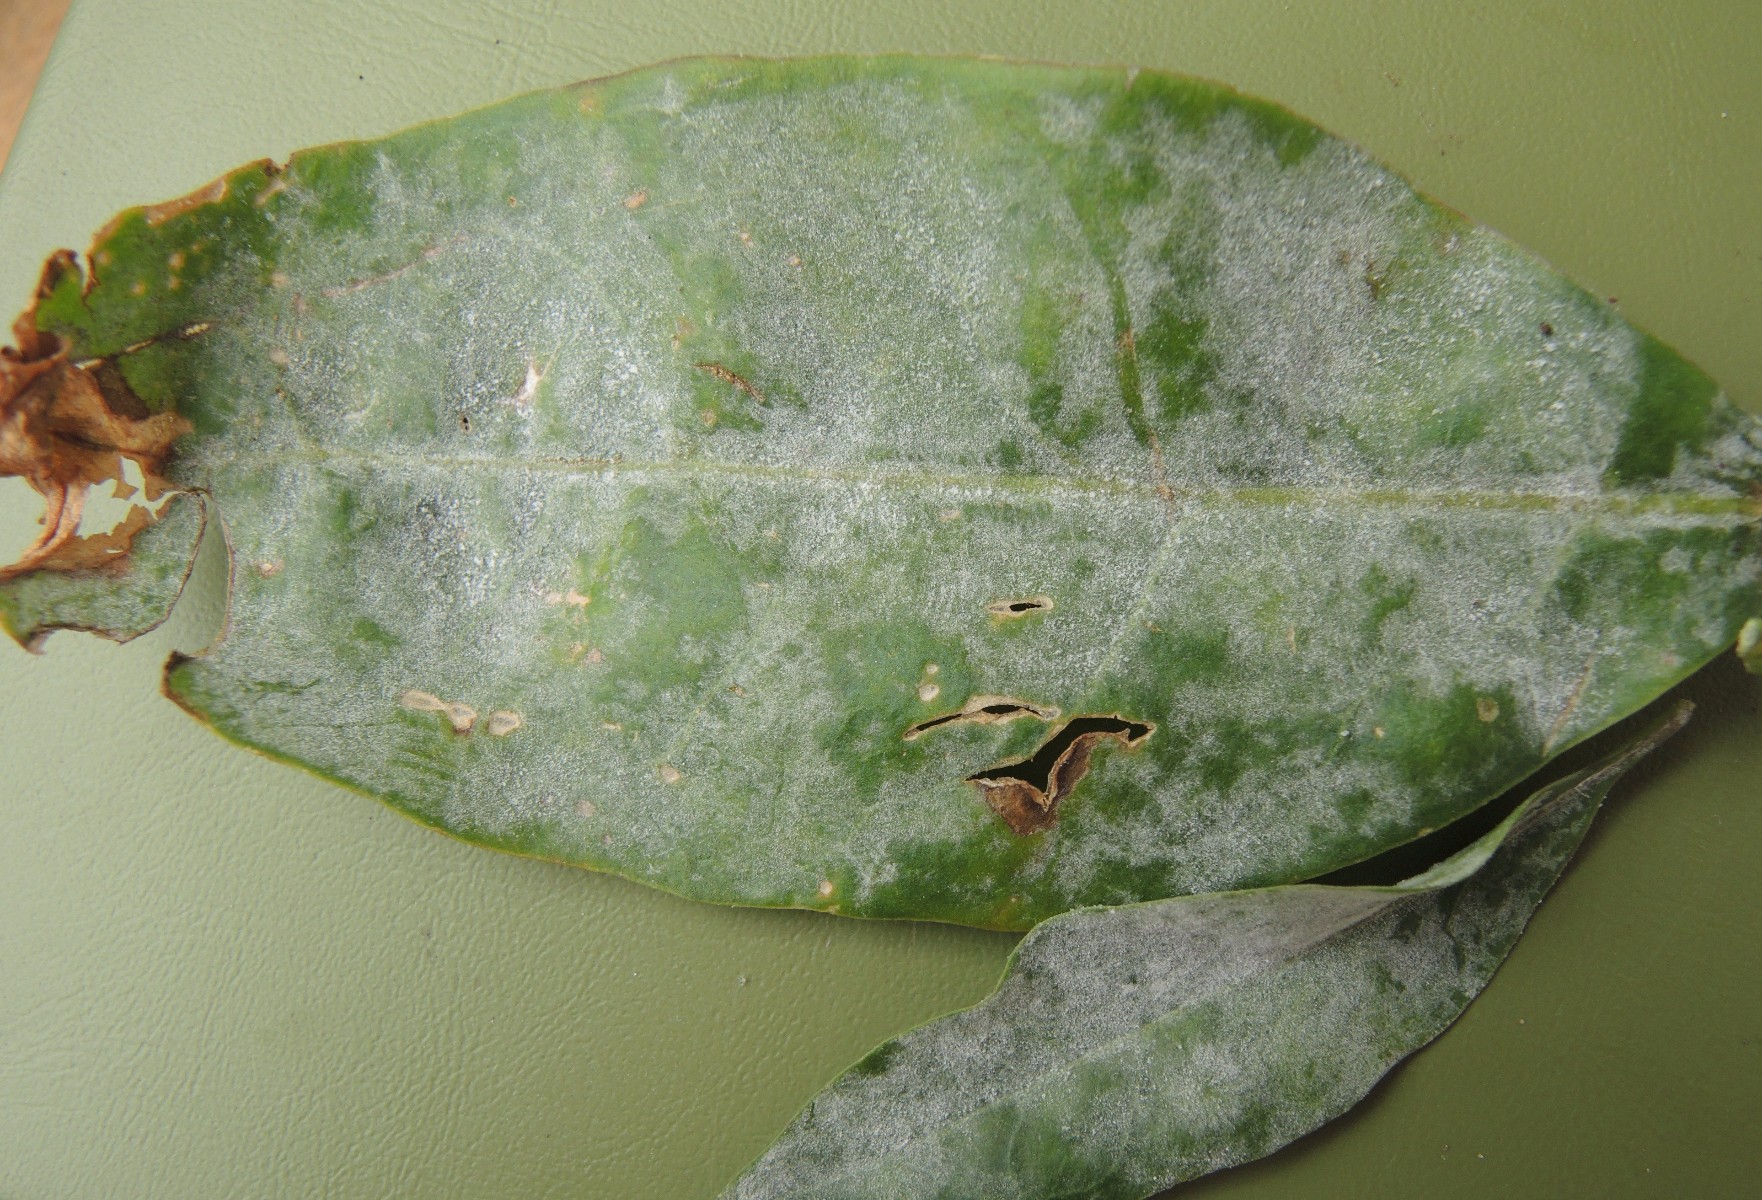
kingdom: Fungi
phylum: Ascomycota
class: Leotiomycetes
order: Helotiales
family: Erysiphaceae
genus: Erysiphe
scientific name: Erysiphe mougeotii
